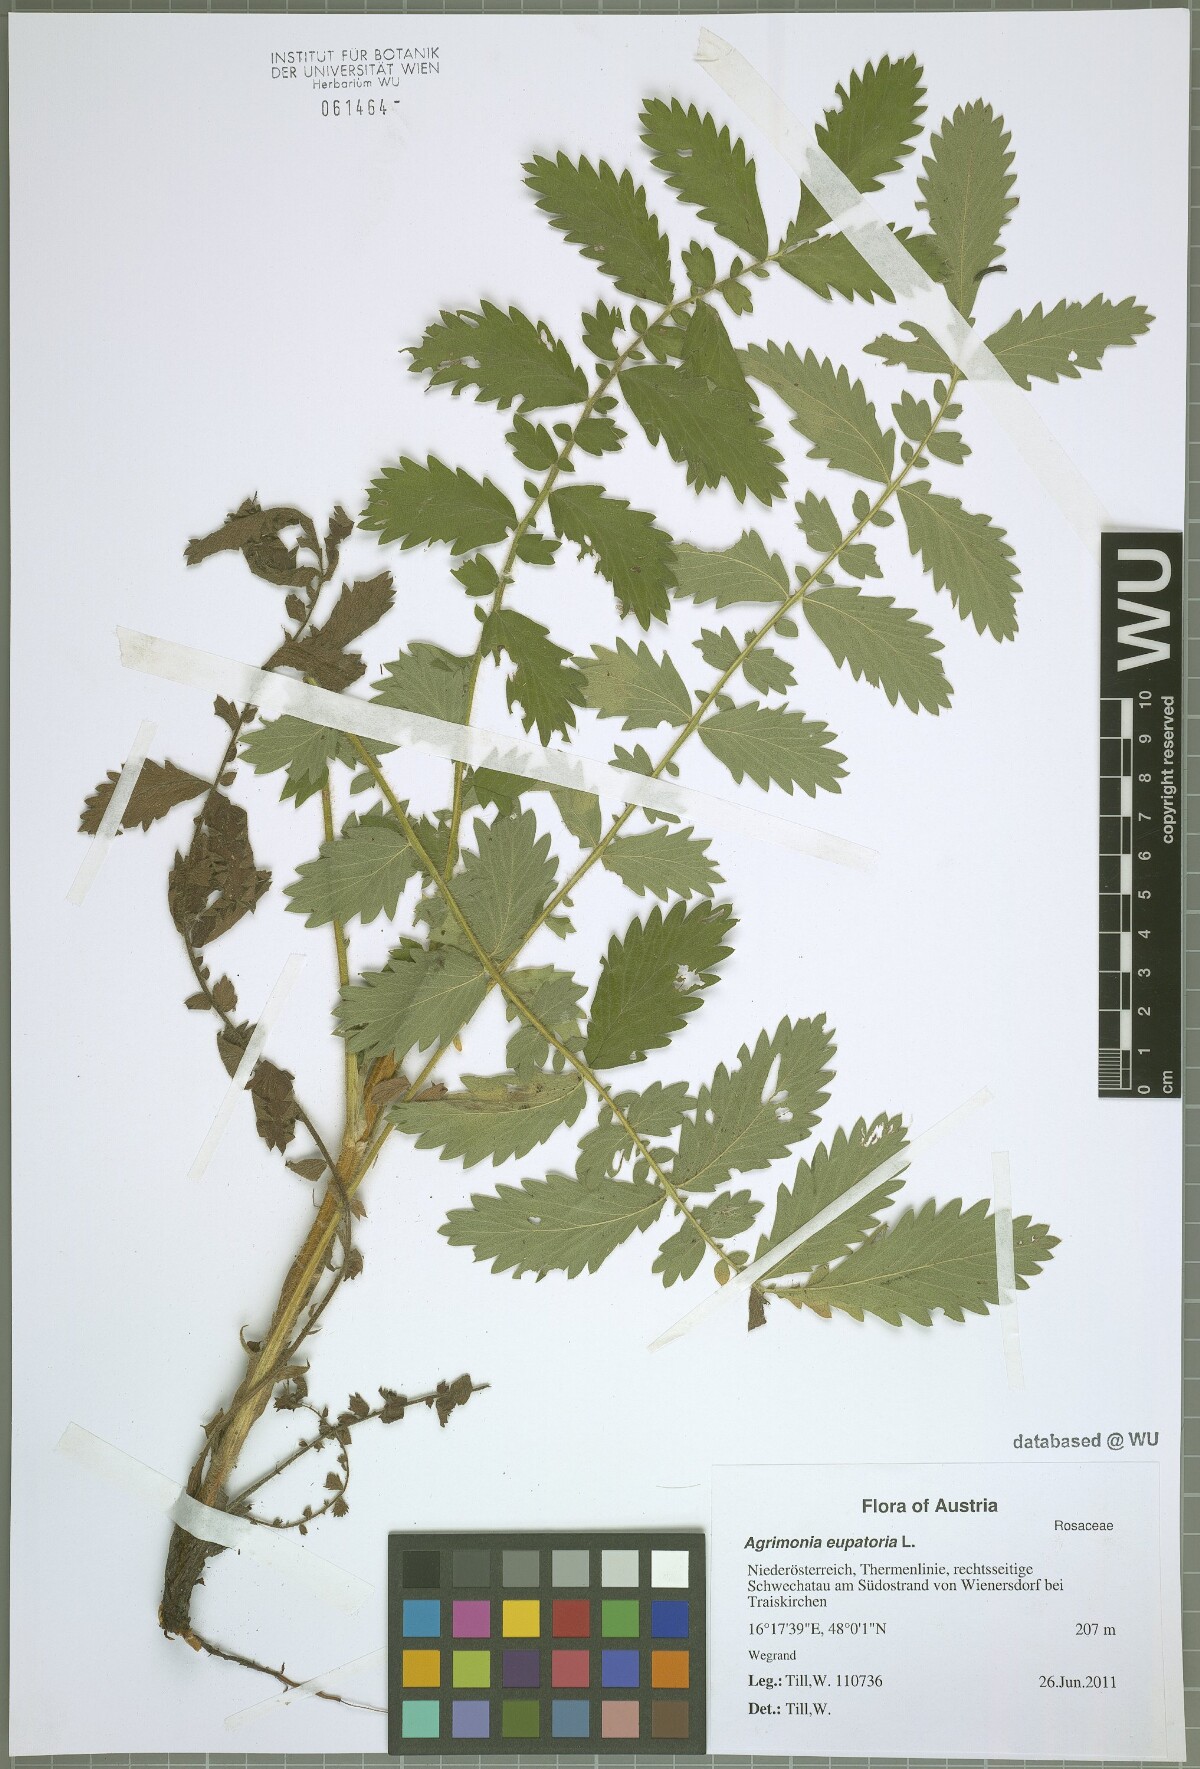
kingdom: Plantae
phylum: Tracheophyta
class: Magnoliopsida
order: Rosales
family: Rosaceae
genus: Agrimonia
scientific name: Agrimonia eupatoria
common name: Agrimony
